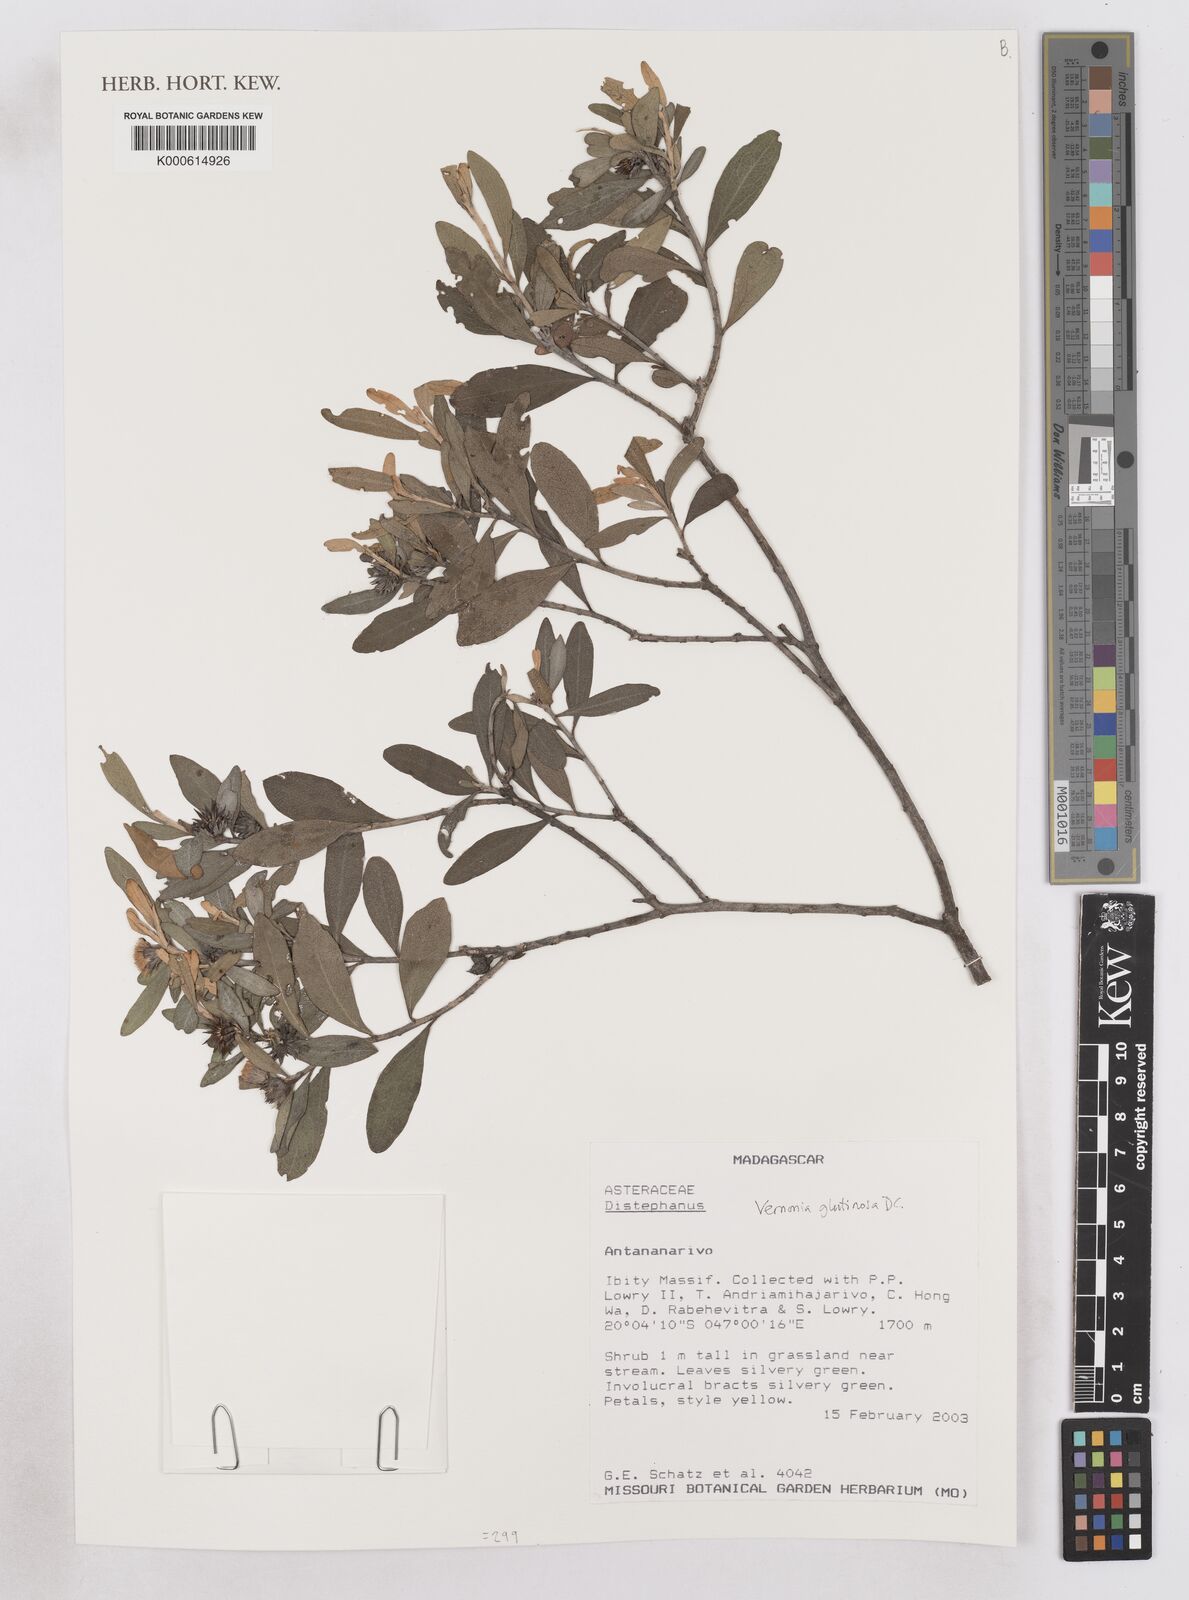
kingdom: Plantae
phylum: Tracheophyta
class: Magnoliopsida
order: Asterales
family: Asteraceae
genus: Distephanus
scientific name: Distephanus glutinosus
